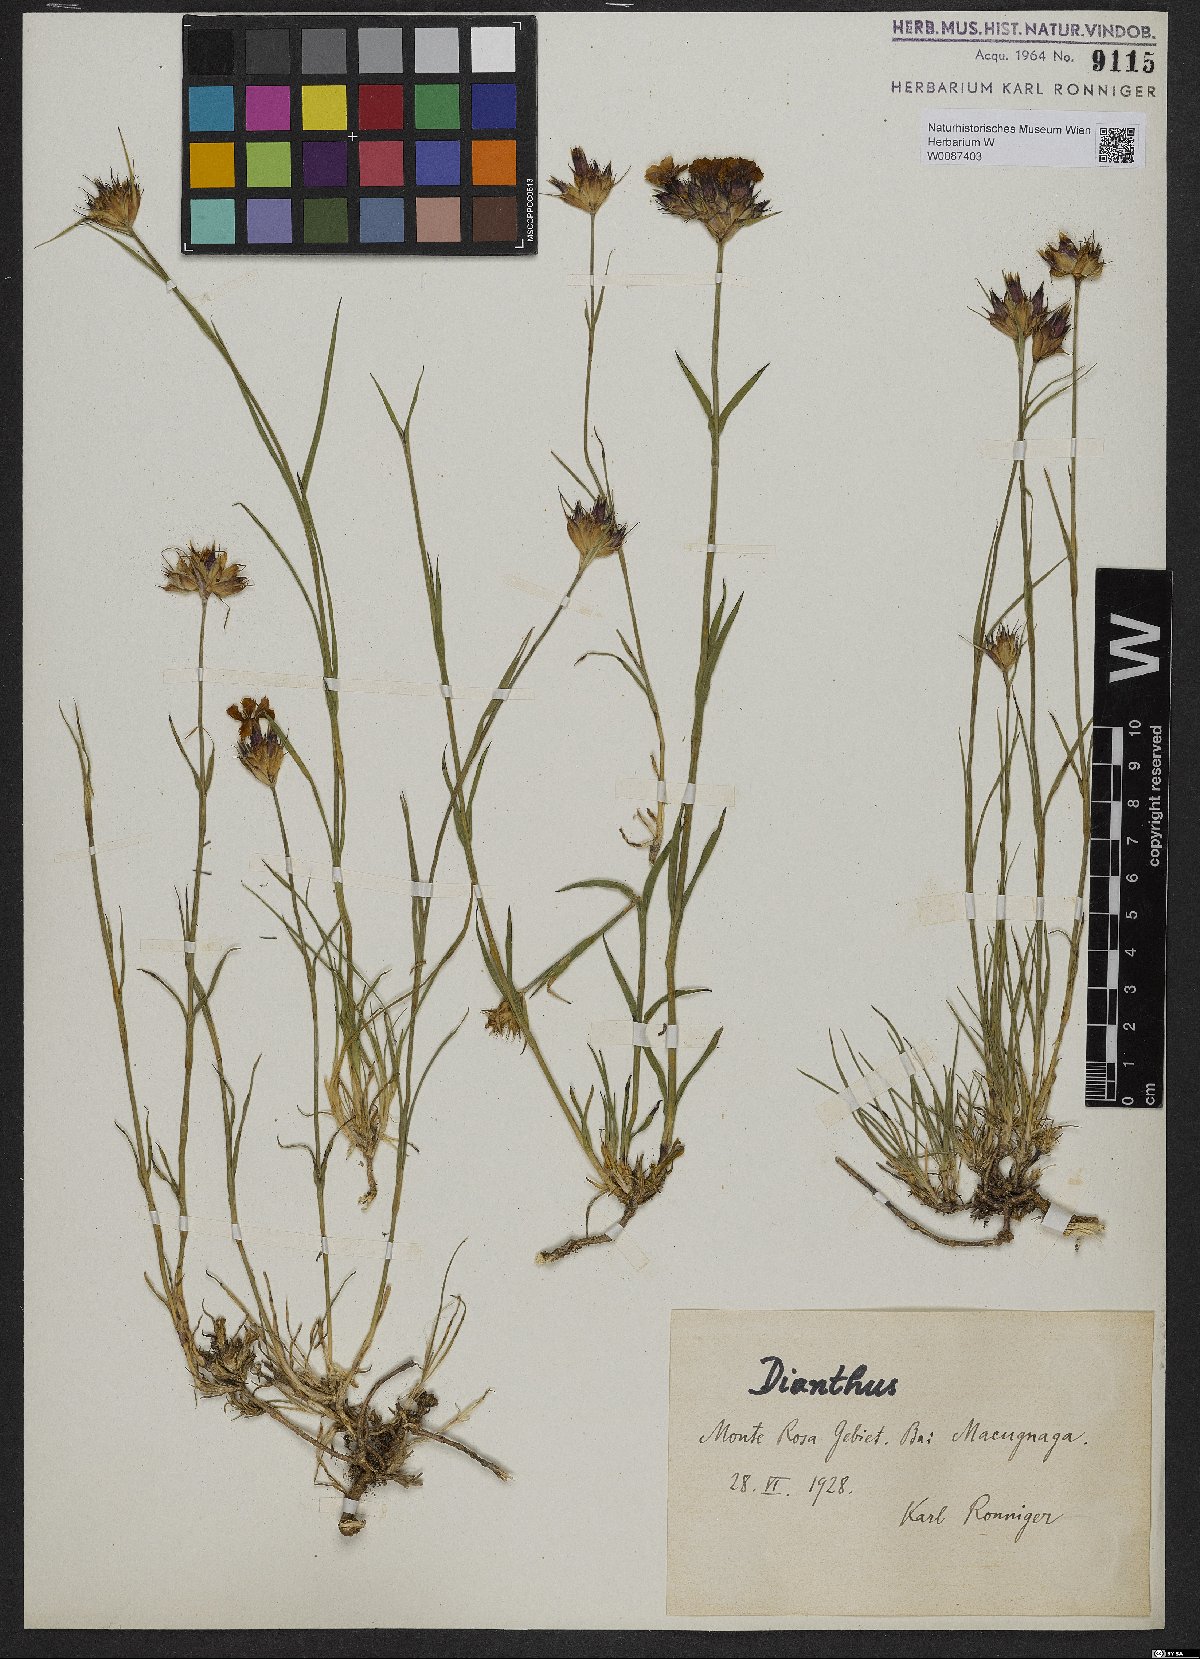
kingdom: Plantae
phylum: Tracheophyta
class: Magnoliopsida
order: Caryophyllales
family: Caryophyllaceae
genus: Dianthus
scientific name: Dianthus
